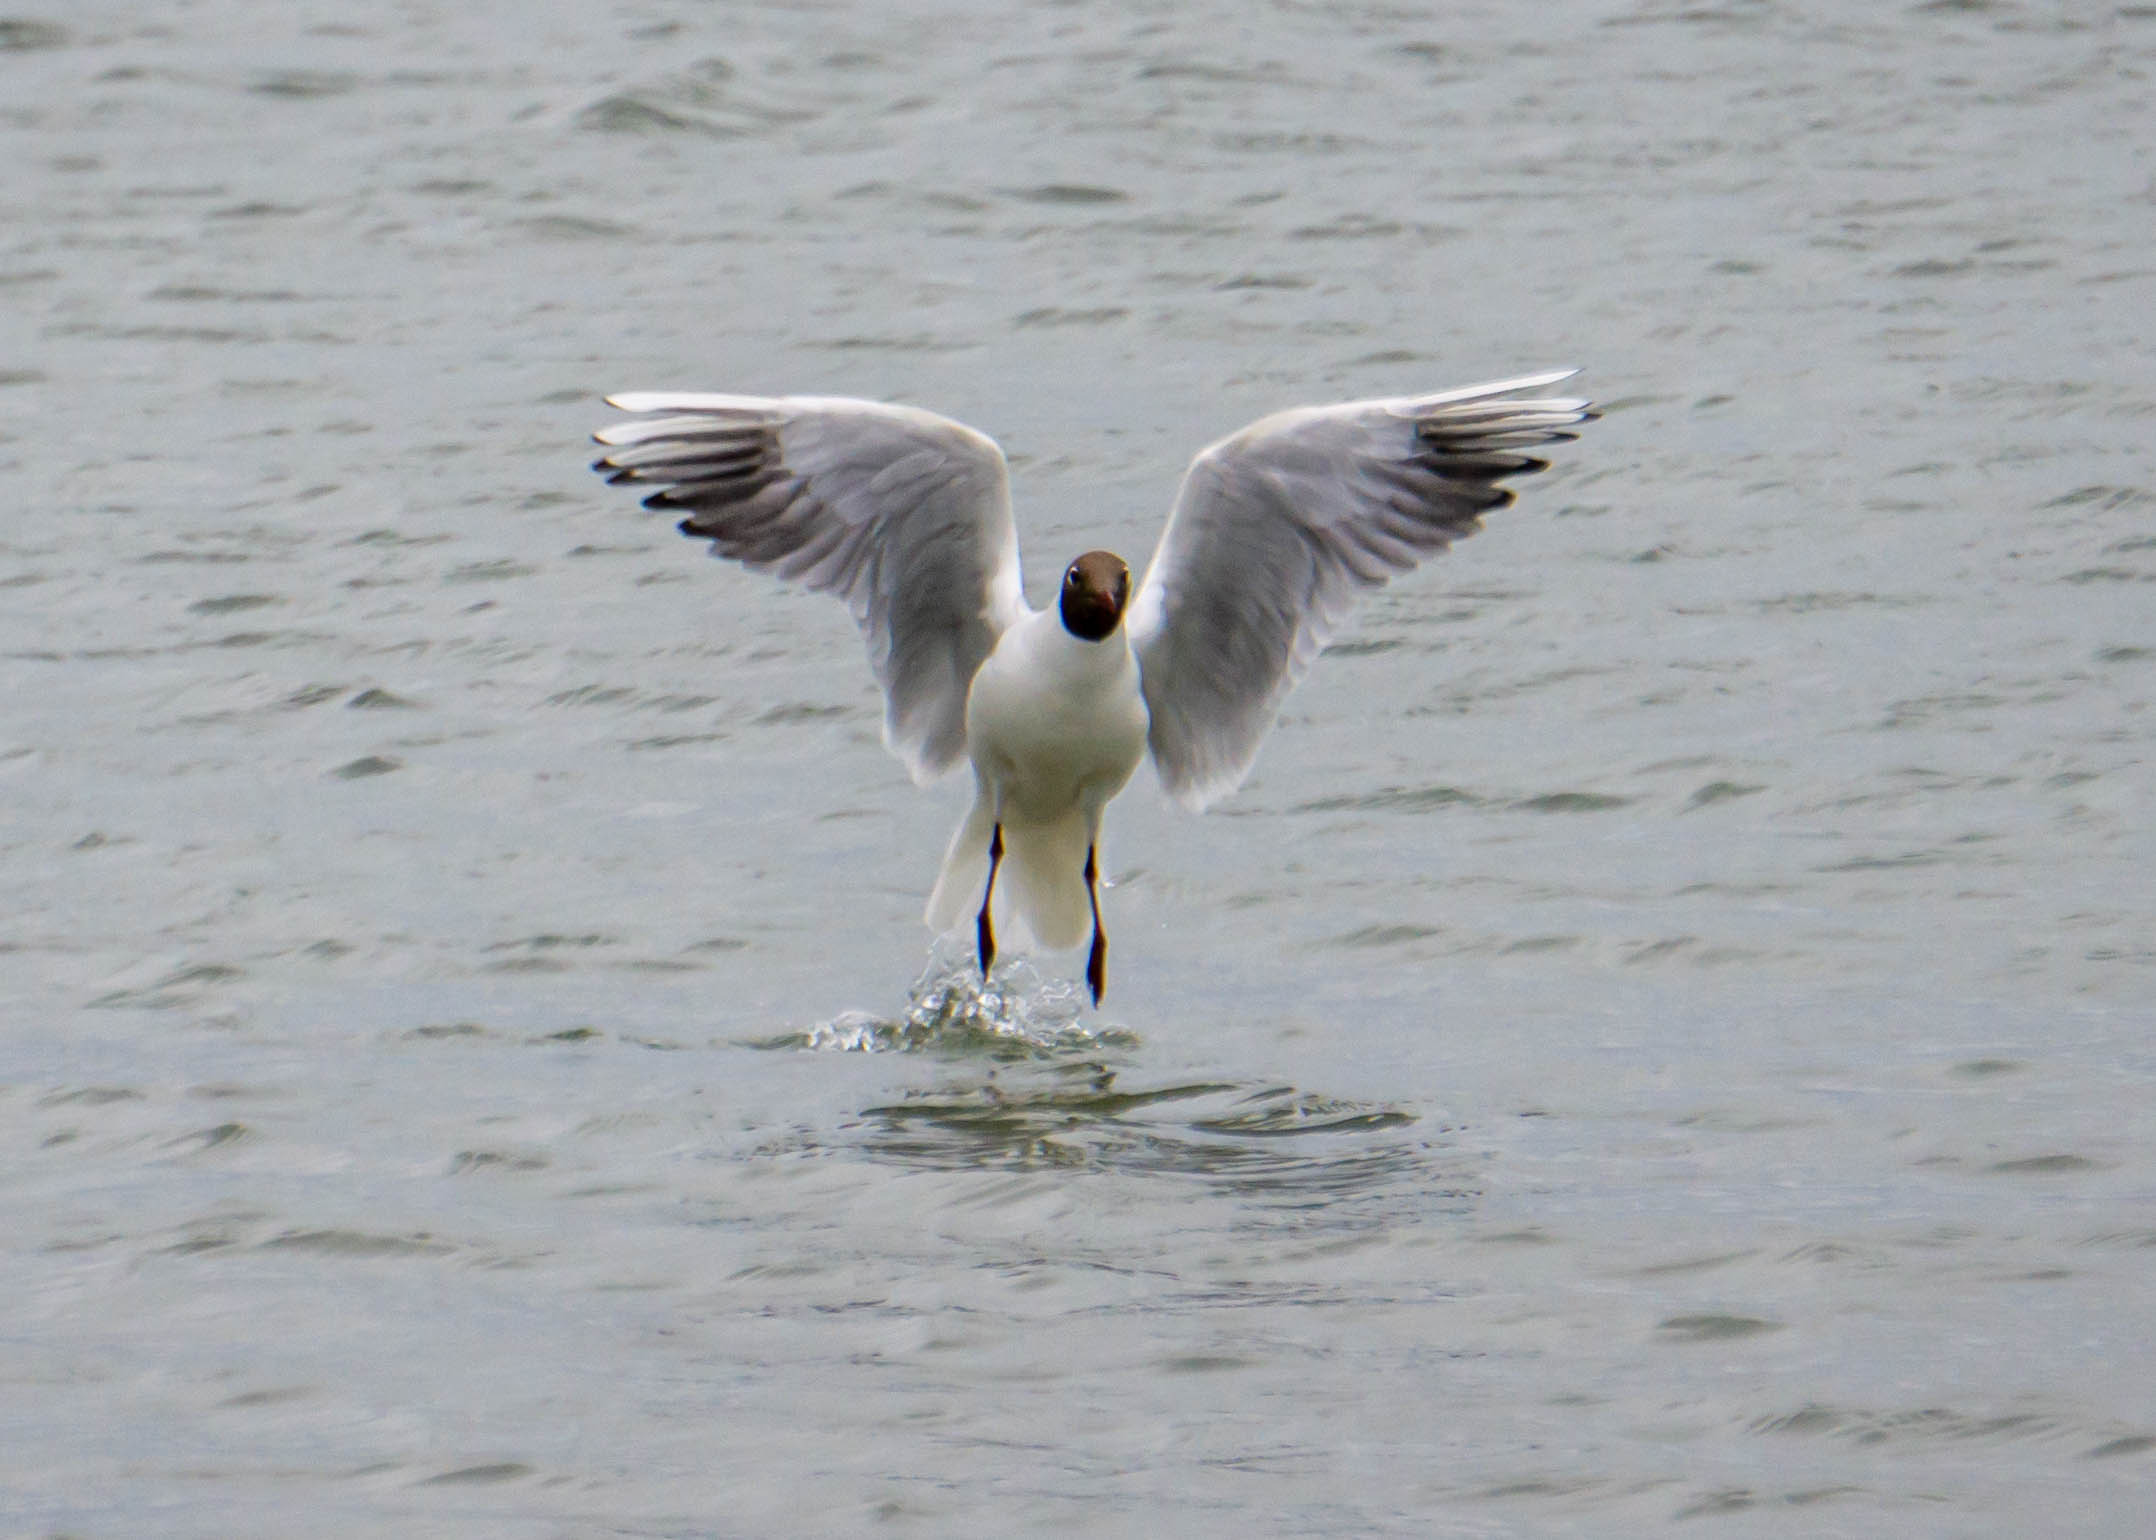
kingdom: Animalia
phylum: Chordata
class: Aves
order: Charadriiformes
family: Laridae
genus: Chroicocephalus
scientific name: Chroicocephalus ridibundus
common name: Hættemåge
